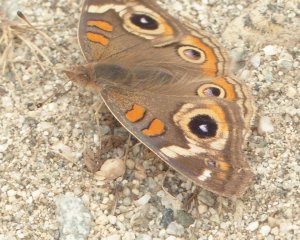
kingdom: Animalia
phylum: Arthropoda
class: Insecta
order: Lepidoptera
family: Nymphalidae
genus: Junonia
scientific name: Junonia coenia
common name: Common Buckeye
